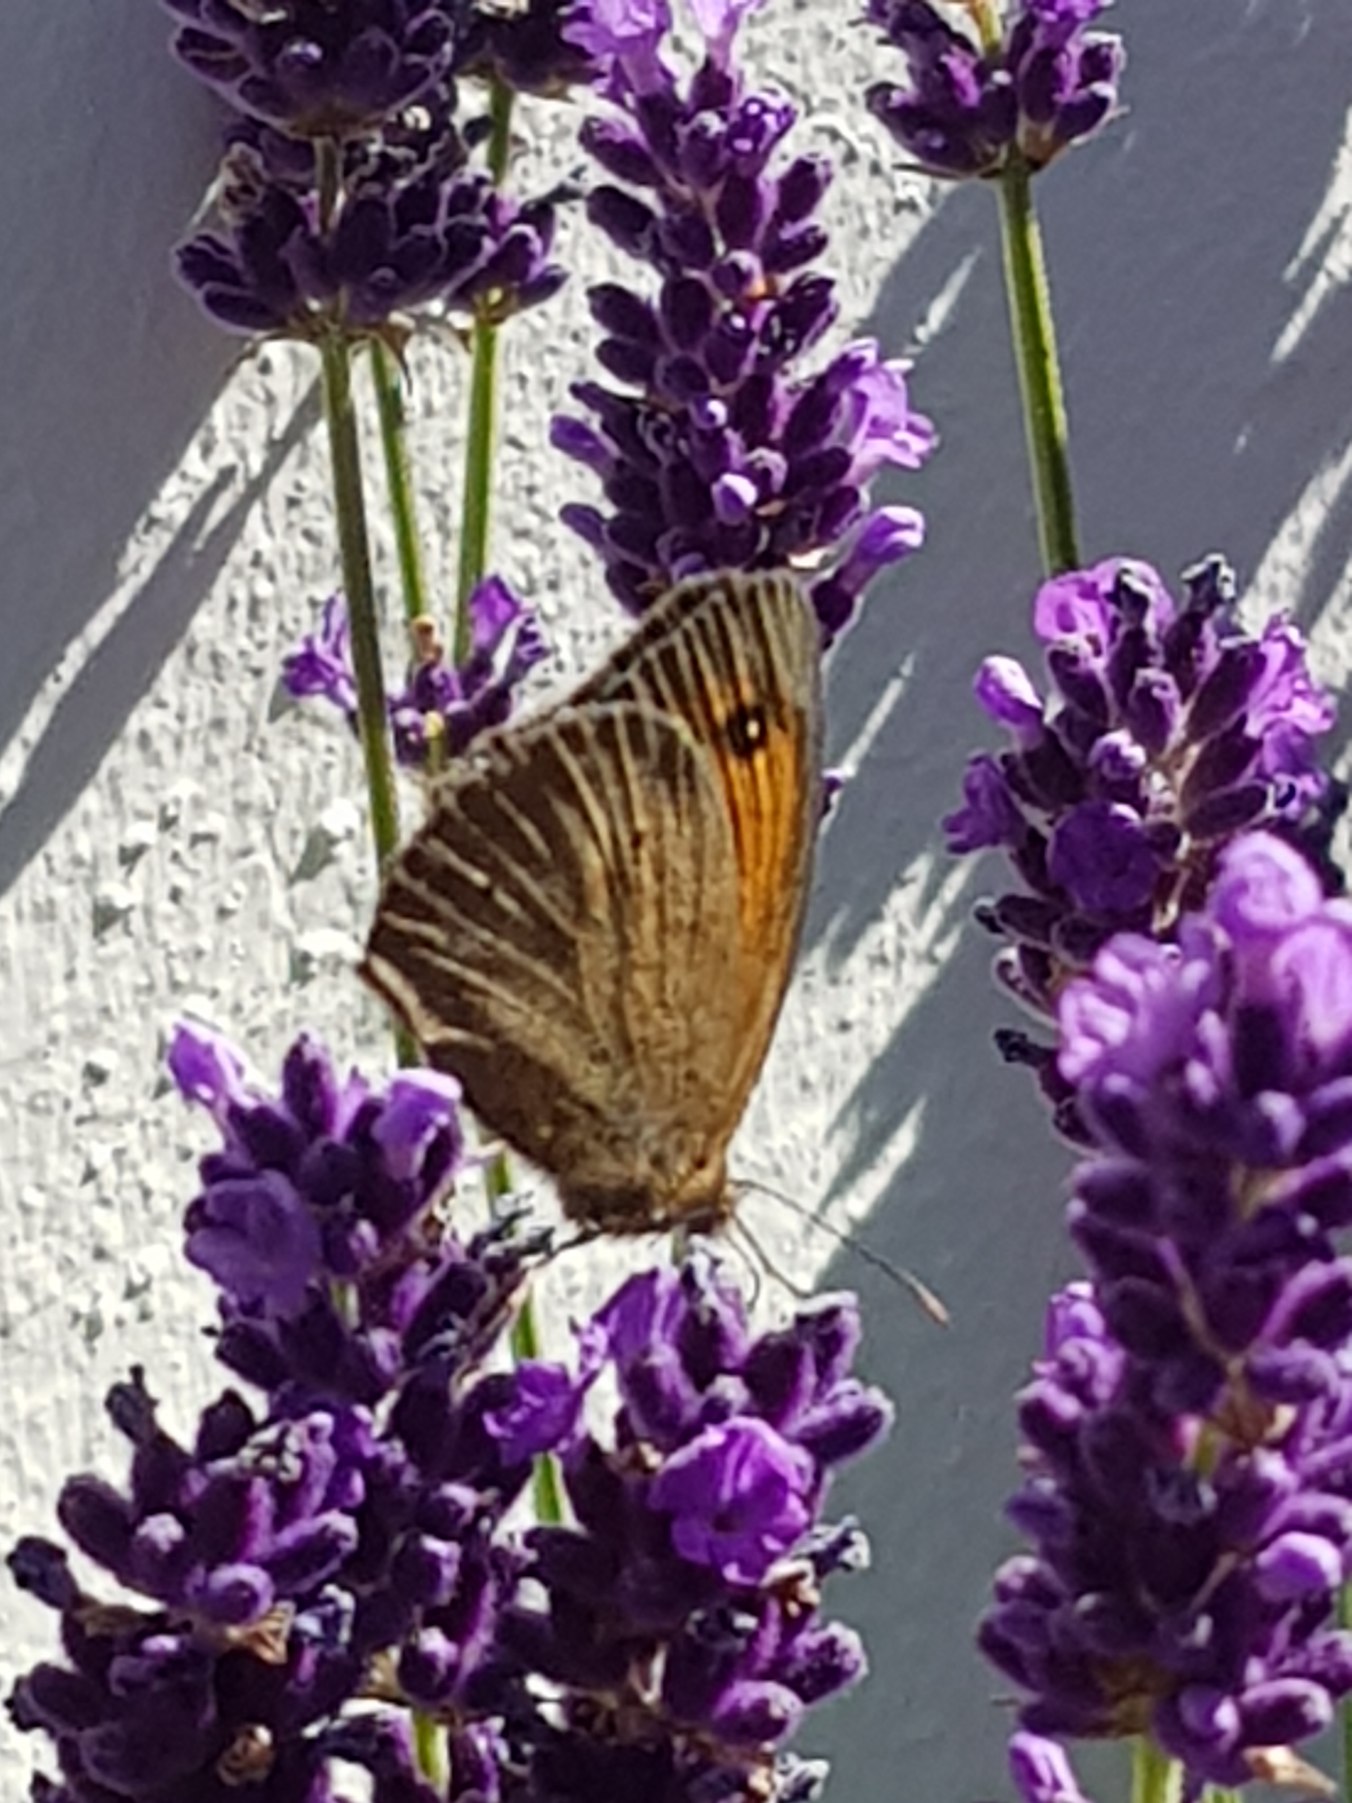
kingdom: Animalia
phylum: Arthropoda
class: Insecta
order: Lepidoptera
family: Nymphalidae
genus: Maniola
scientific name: Maniola jurtina
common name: Græsrandøje
